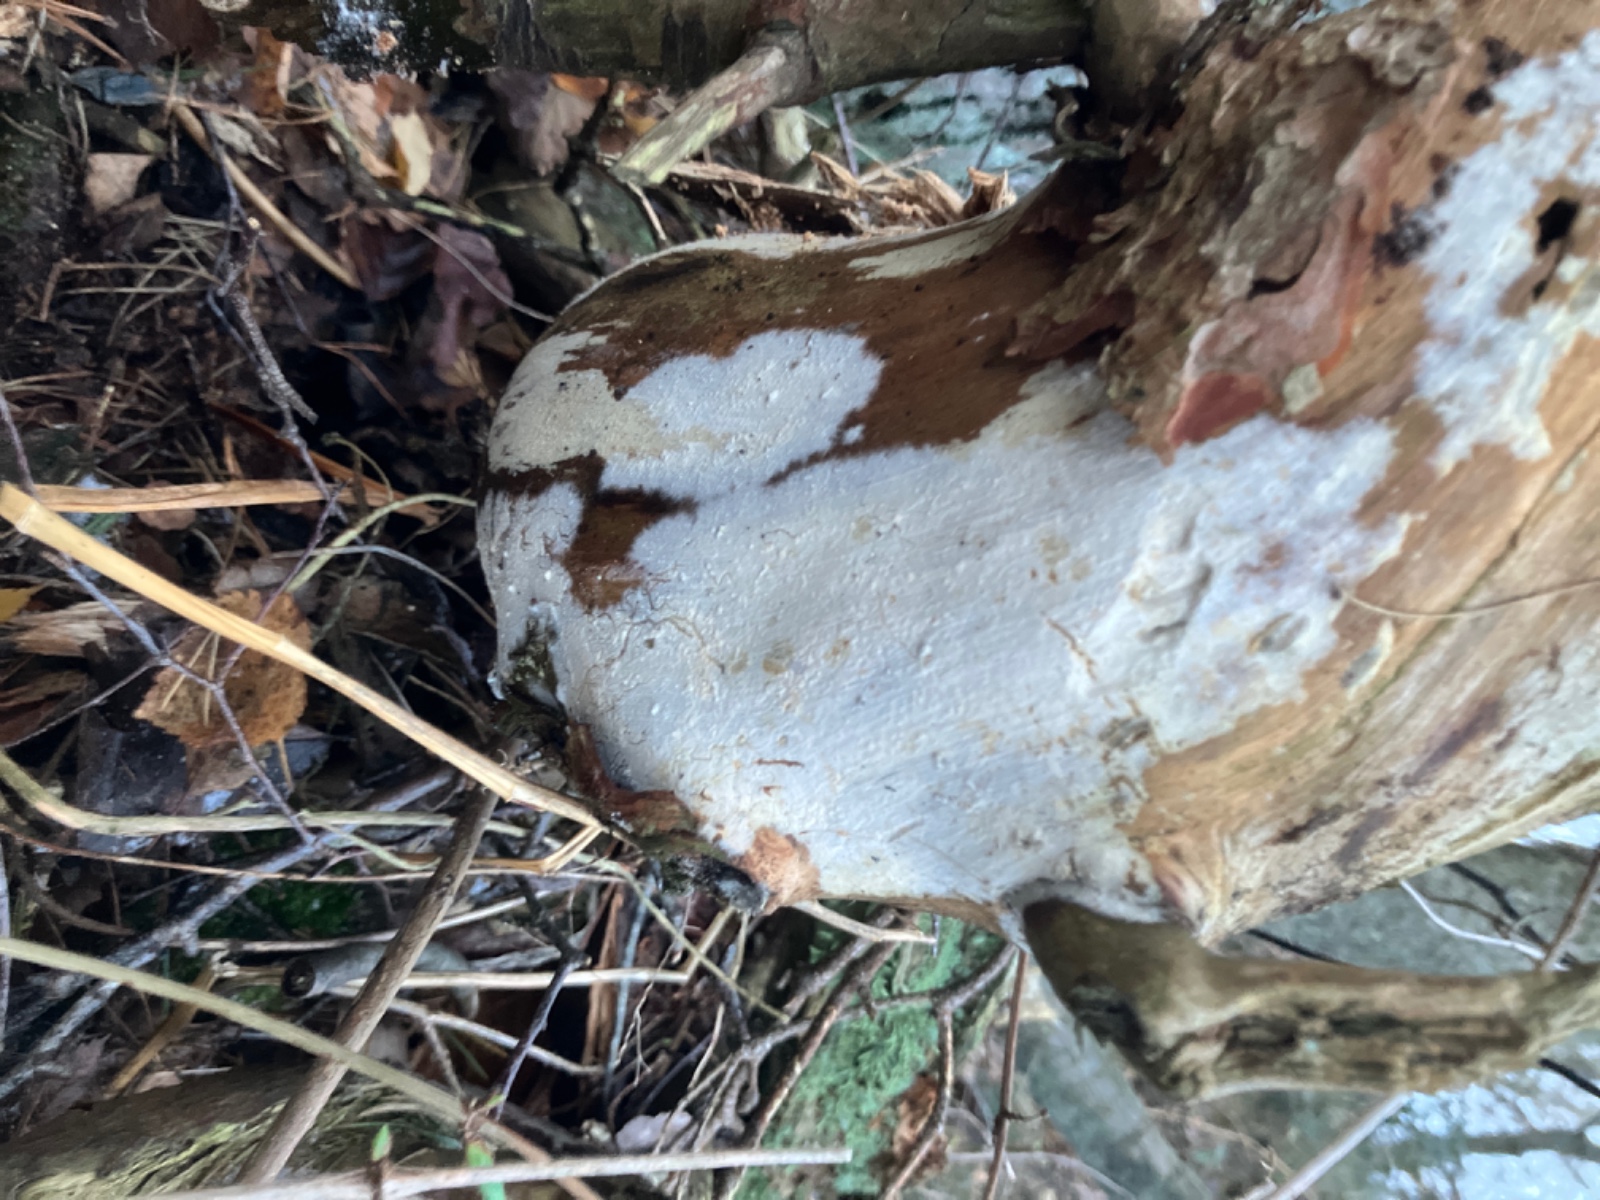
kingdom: Fungi
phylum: Basidiomycota
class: Agaricomycetes
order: Cantharellales
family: Botryobasidiaceae
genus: Botryobasidium
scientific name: Botryobasidium subcoronatum
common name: almindelig spindhinde
